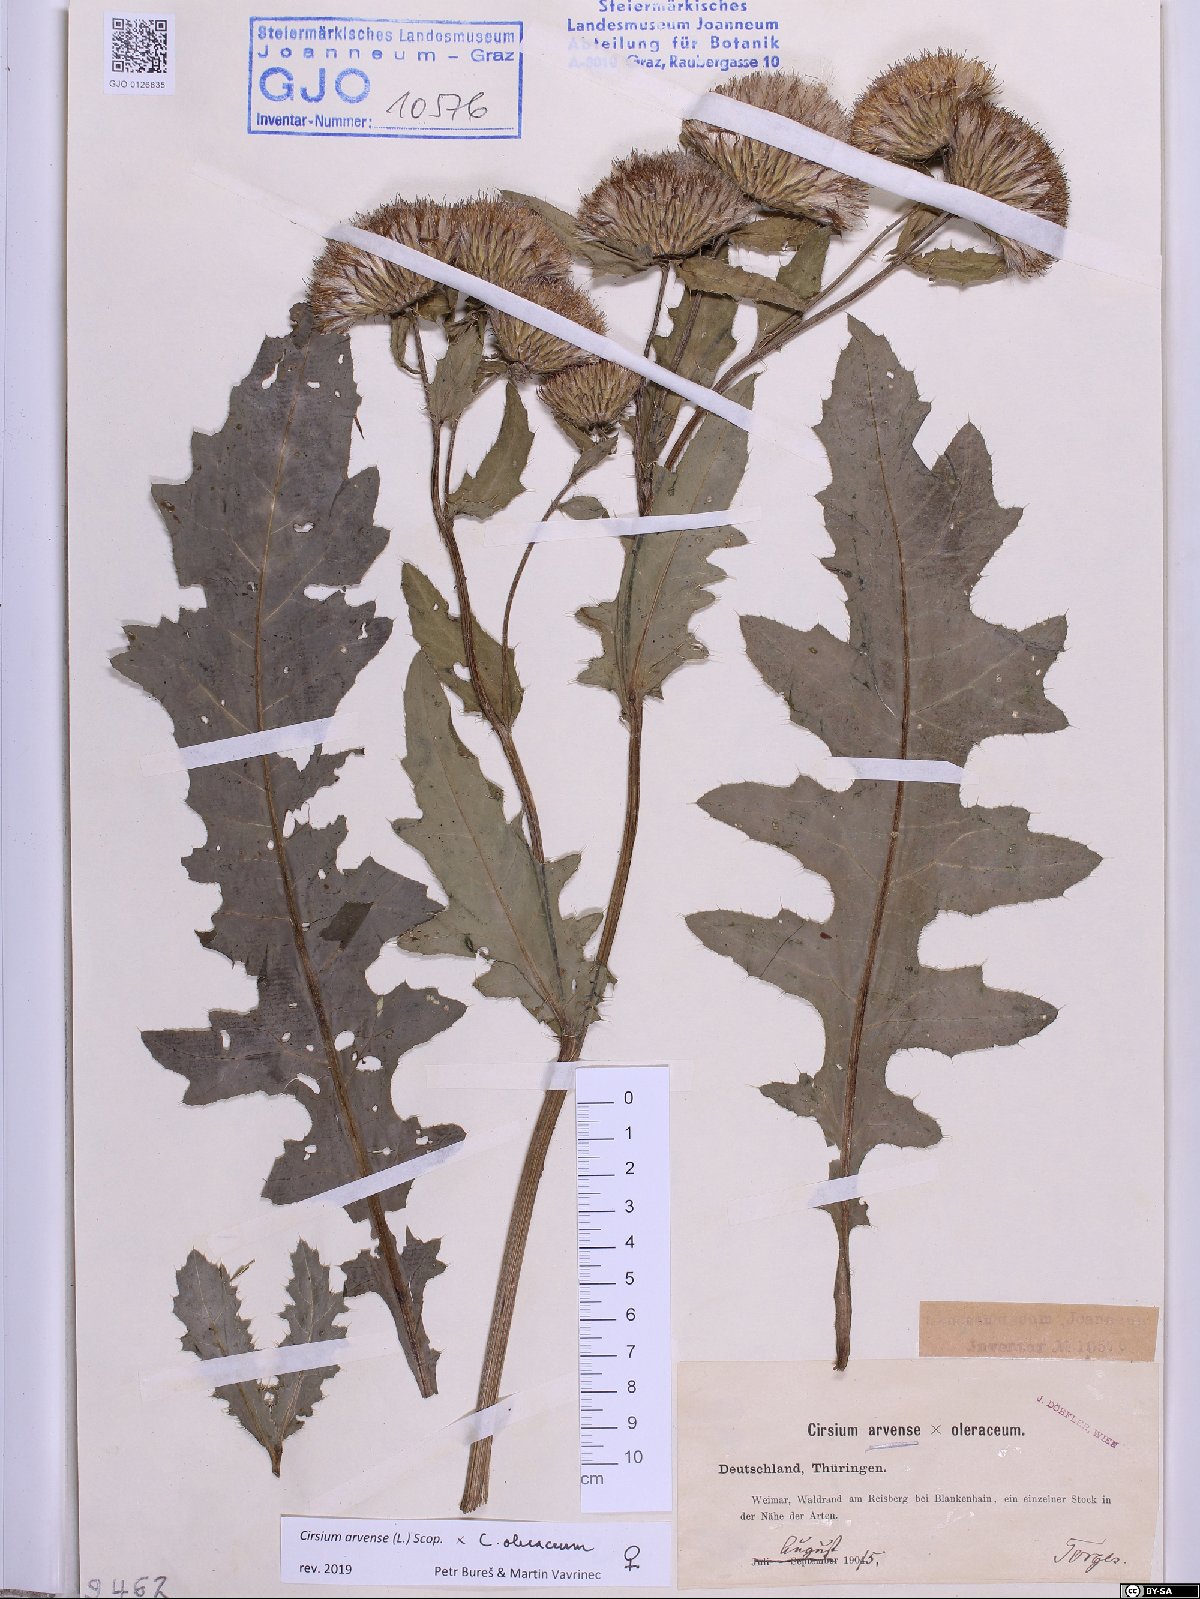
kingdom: Plantae
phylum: Tracheophyta
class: Magnoliopsida
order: Asterales
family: Asteraceae
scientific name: Asteraceae
